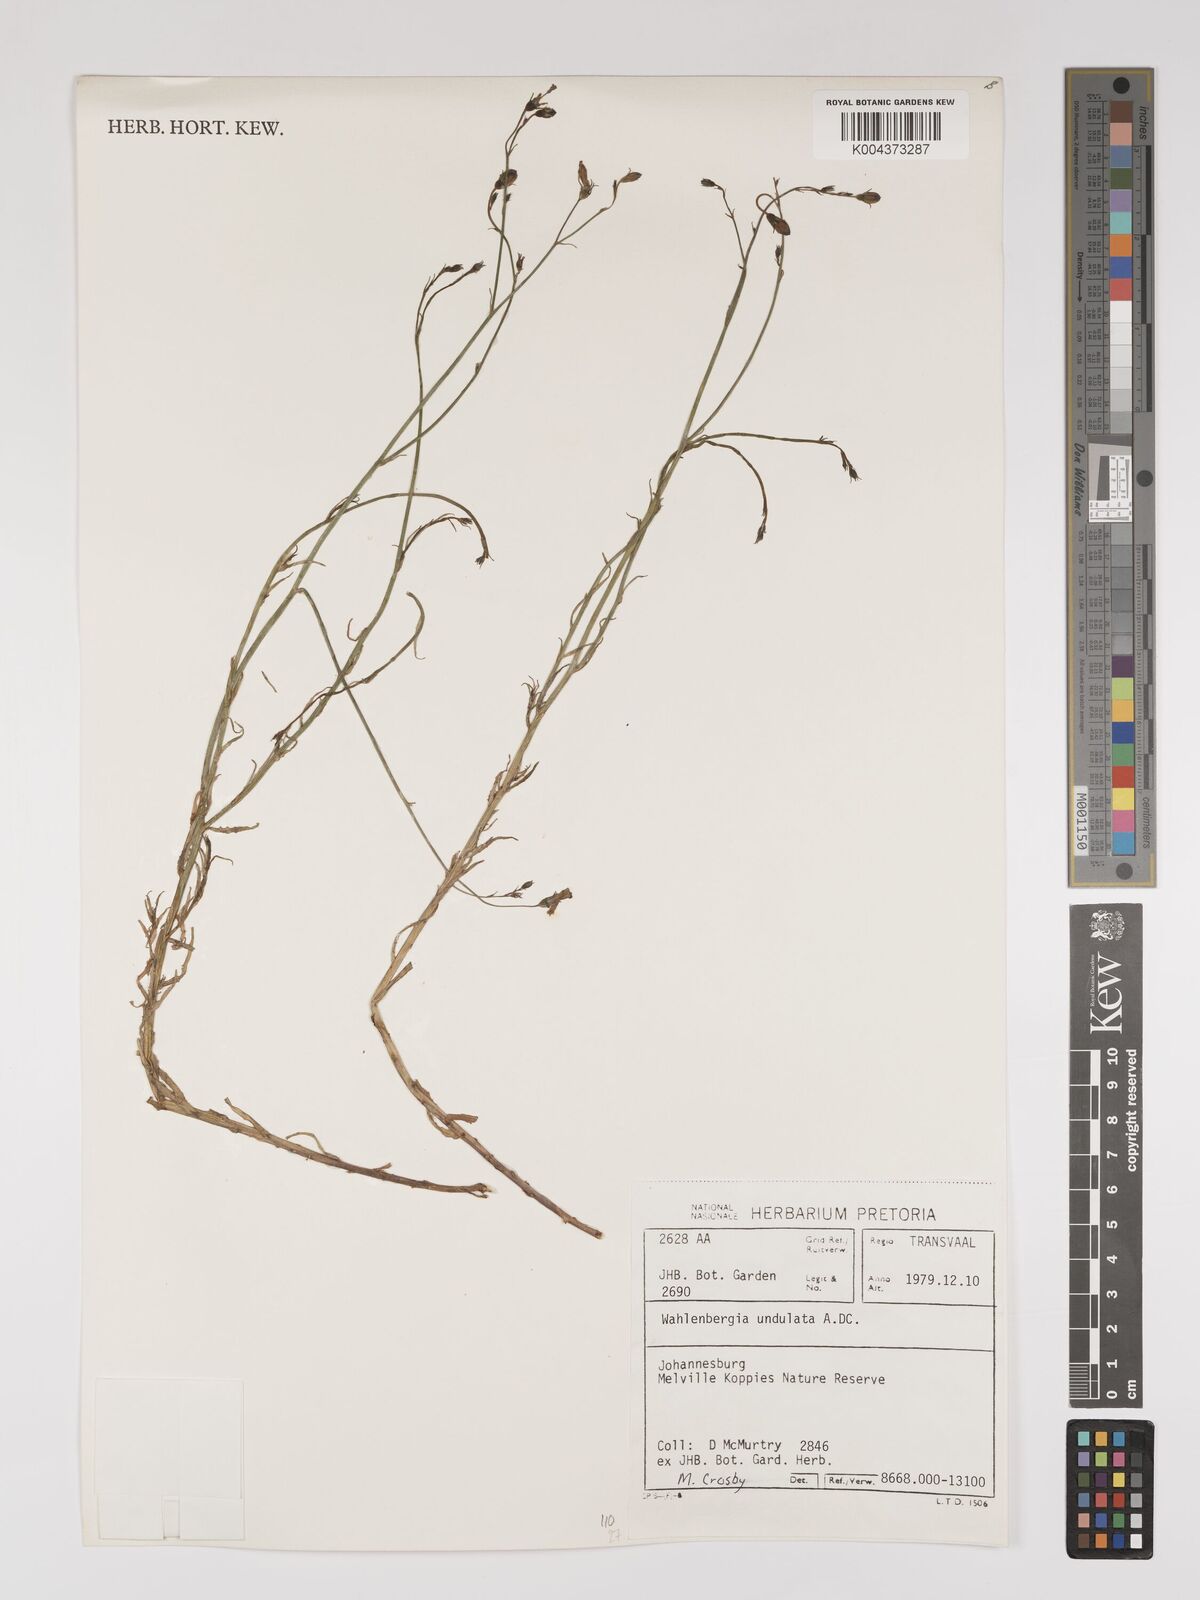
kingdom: Plantae
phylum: Tracheophyta
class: Magnoliopsida
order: Asterales
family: Campanulaceae
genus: Wahlenbergia
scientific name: Wahlenbergia undulata
